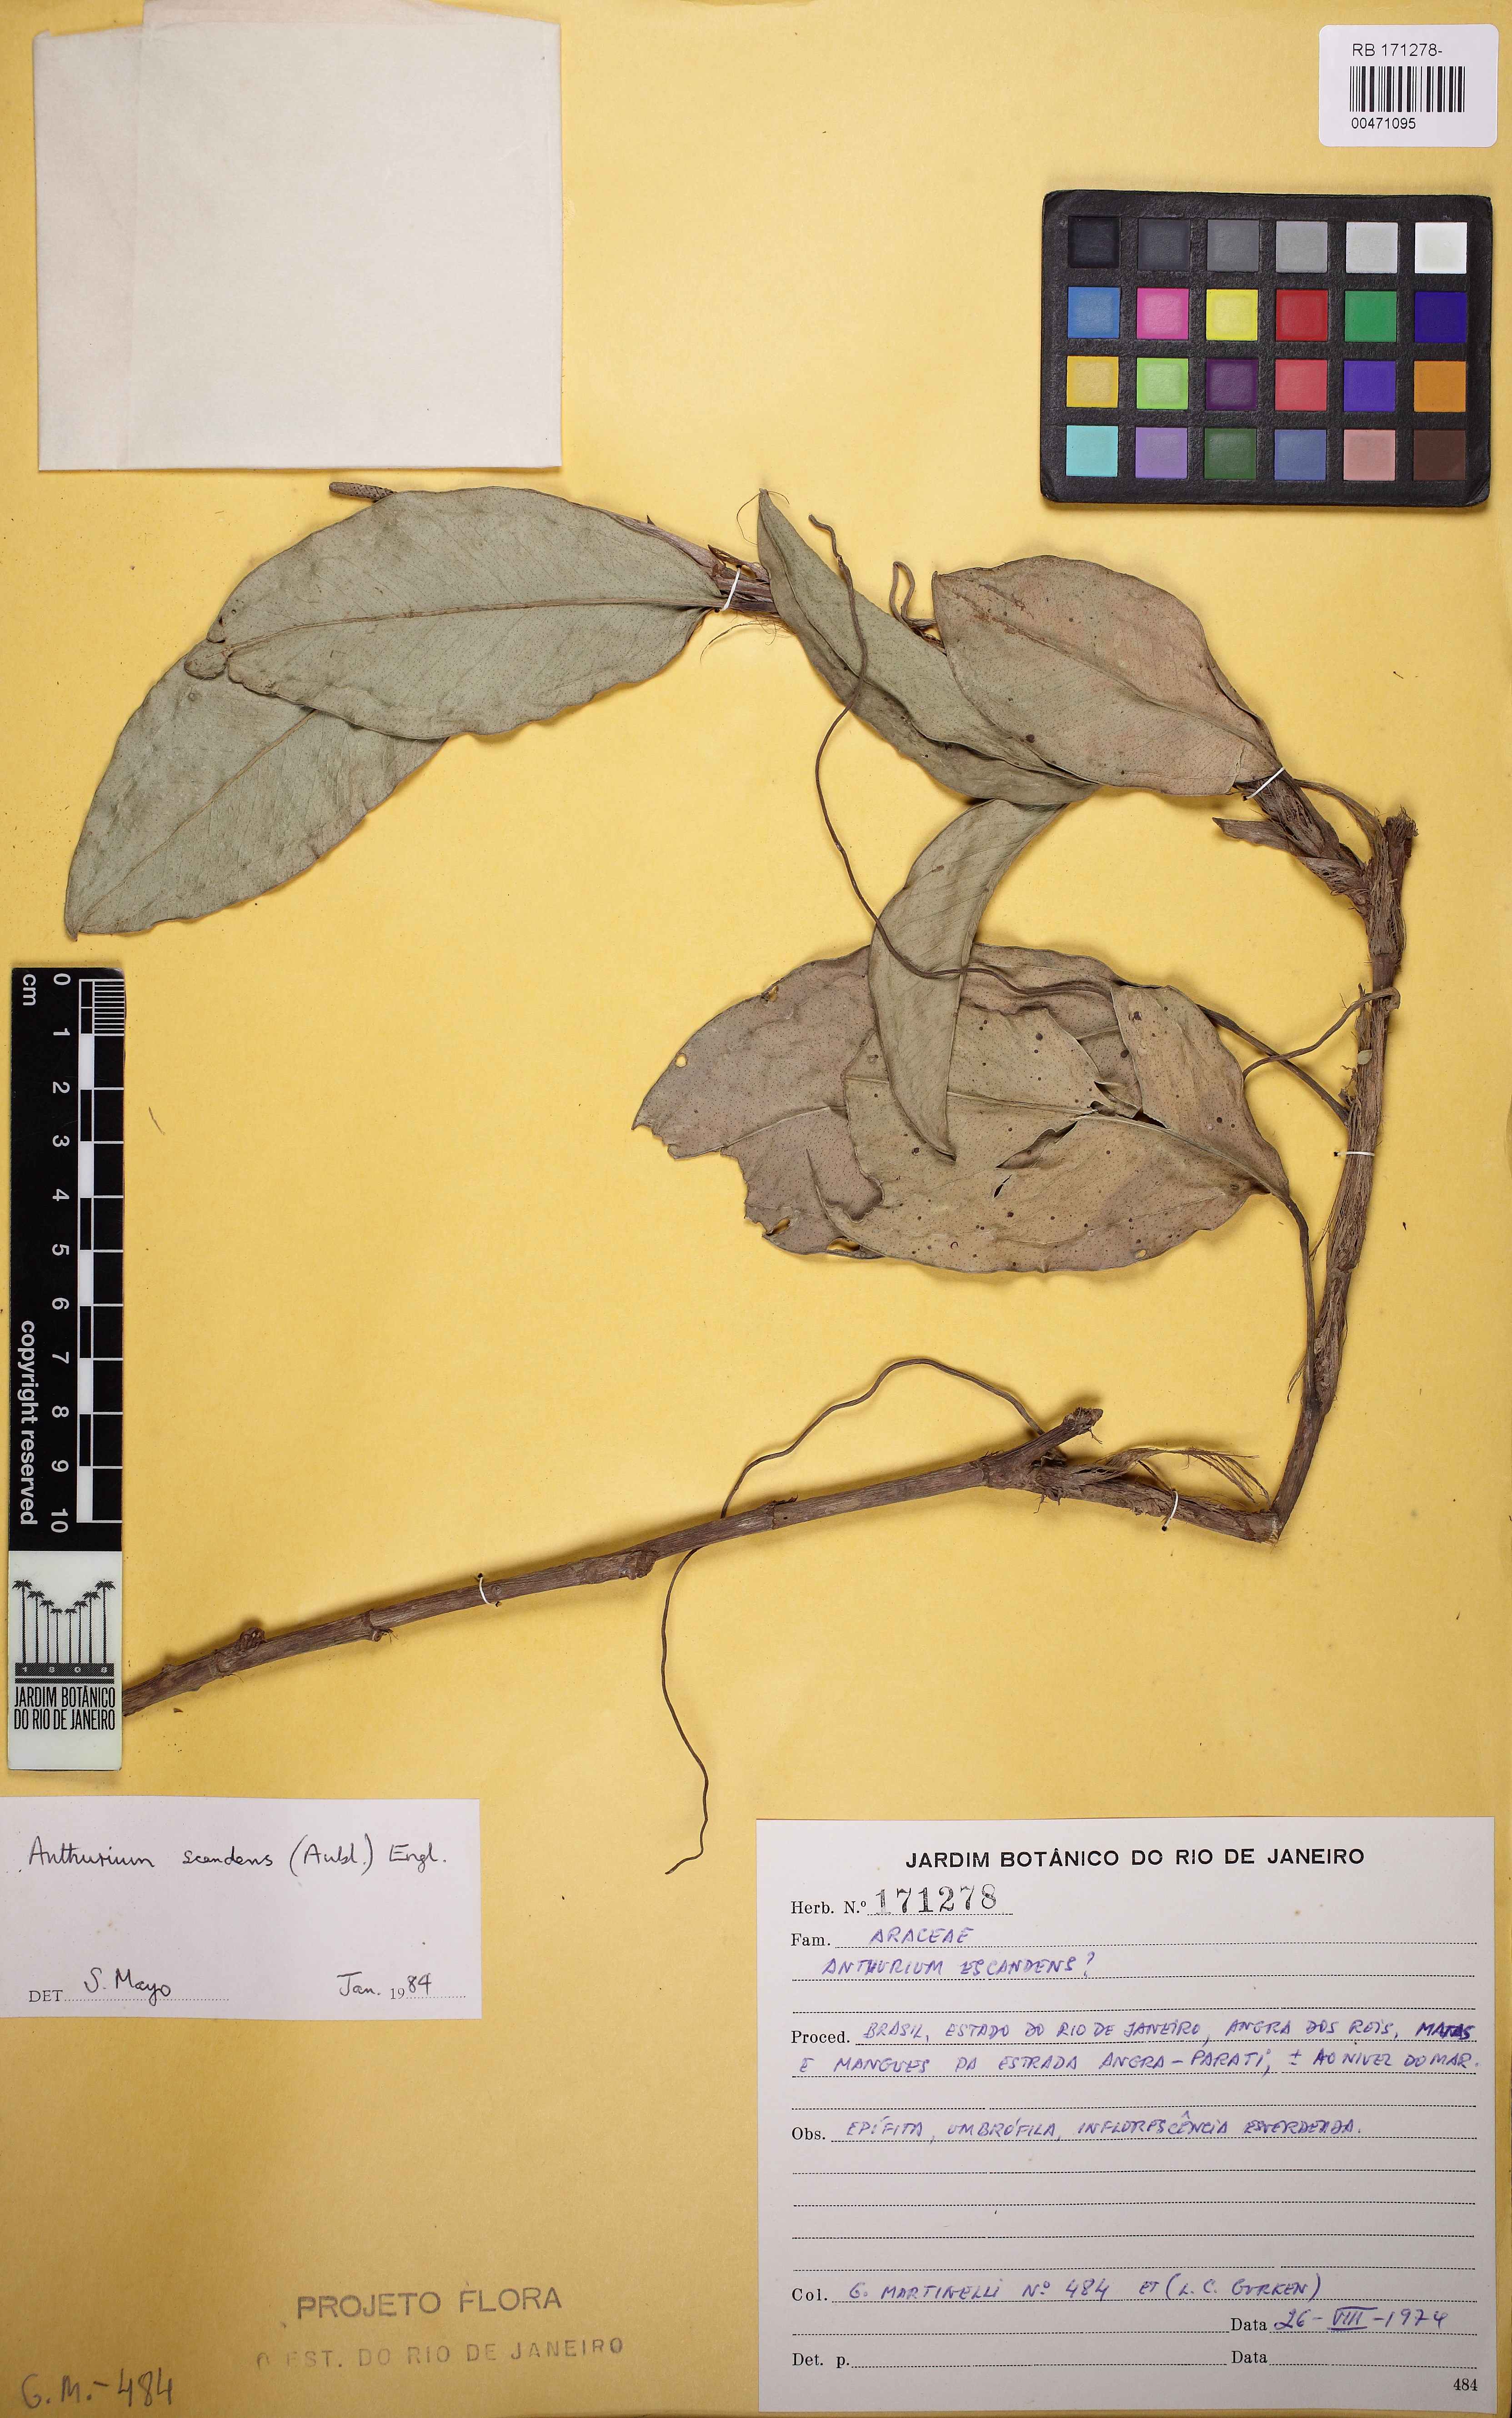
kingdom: Plantae
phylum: Tracheophyta
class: Liliopsida
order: Alismatales
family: Araceae
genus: Anthurium
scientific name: Anthurium scandens
